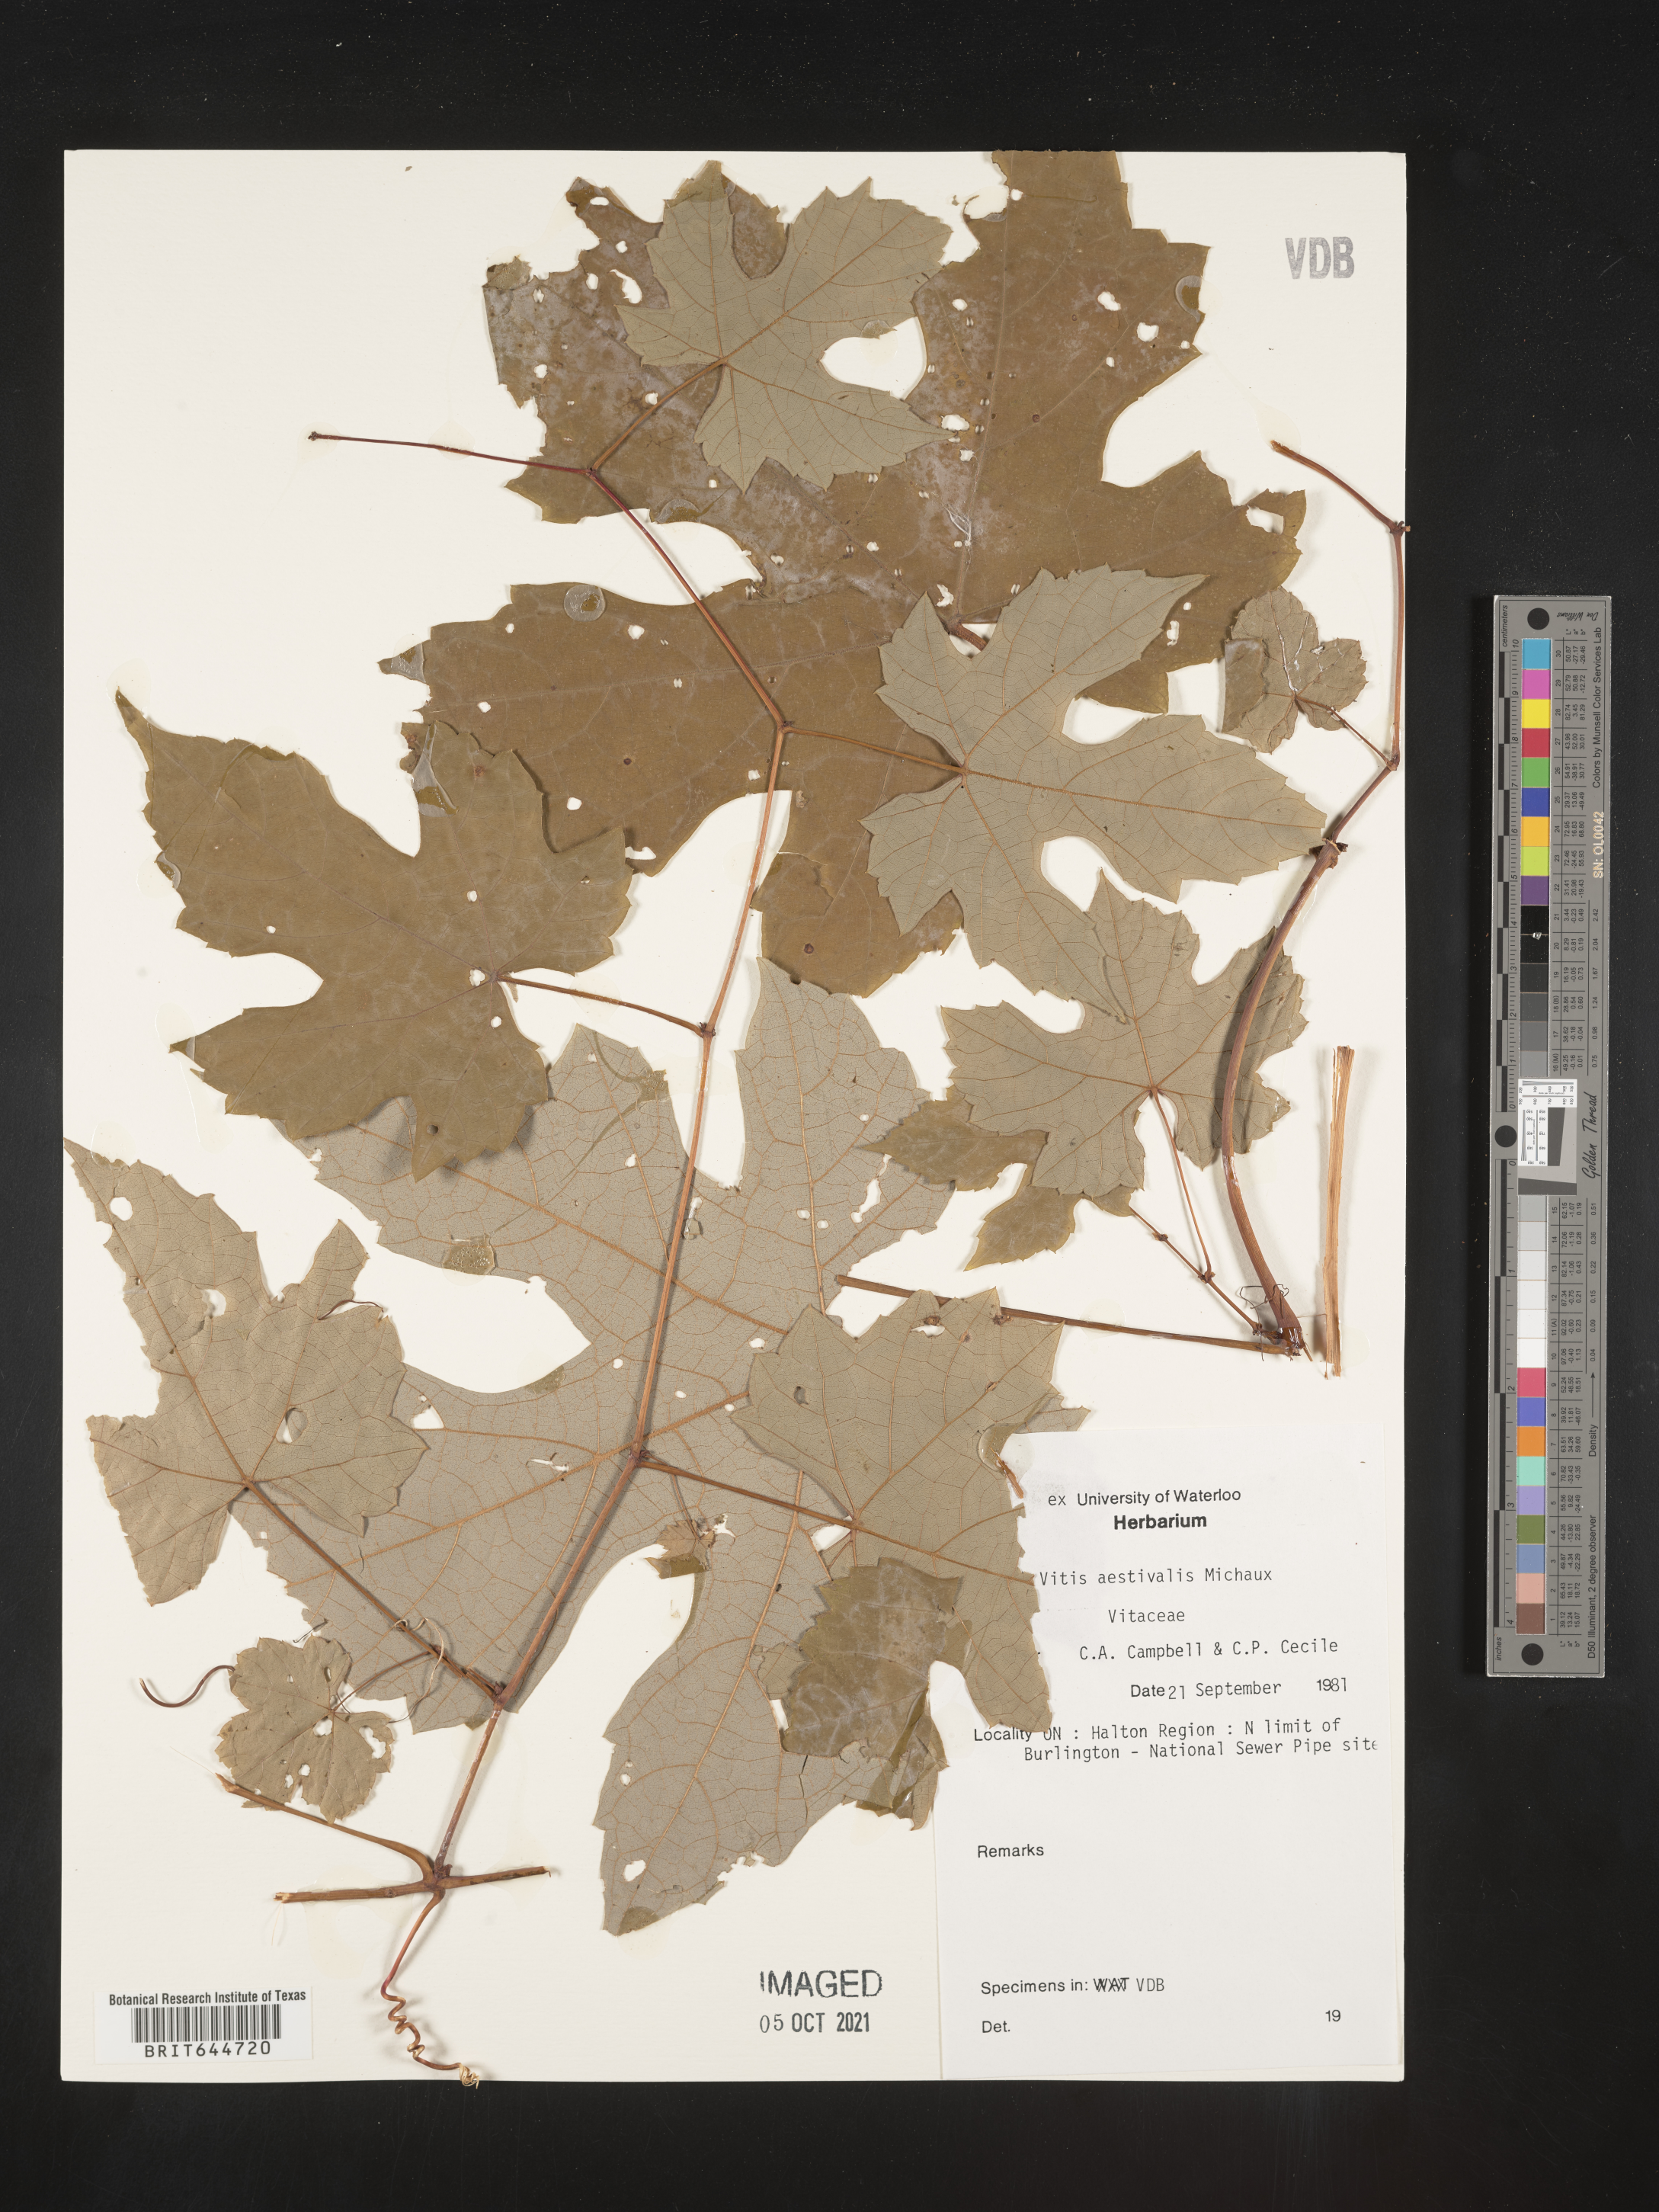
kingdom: Plantae
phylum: Tracheophyta
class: Magnoliopsida
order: Vitales
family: Vitaceae
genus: Vitis
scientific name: Vitis
